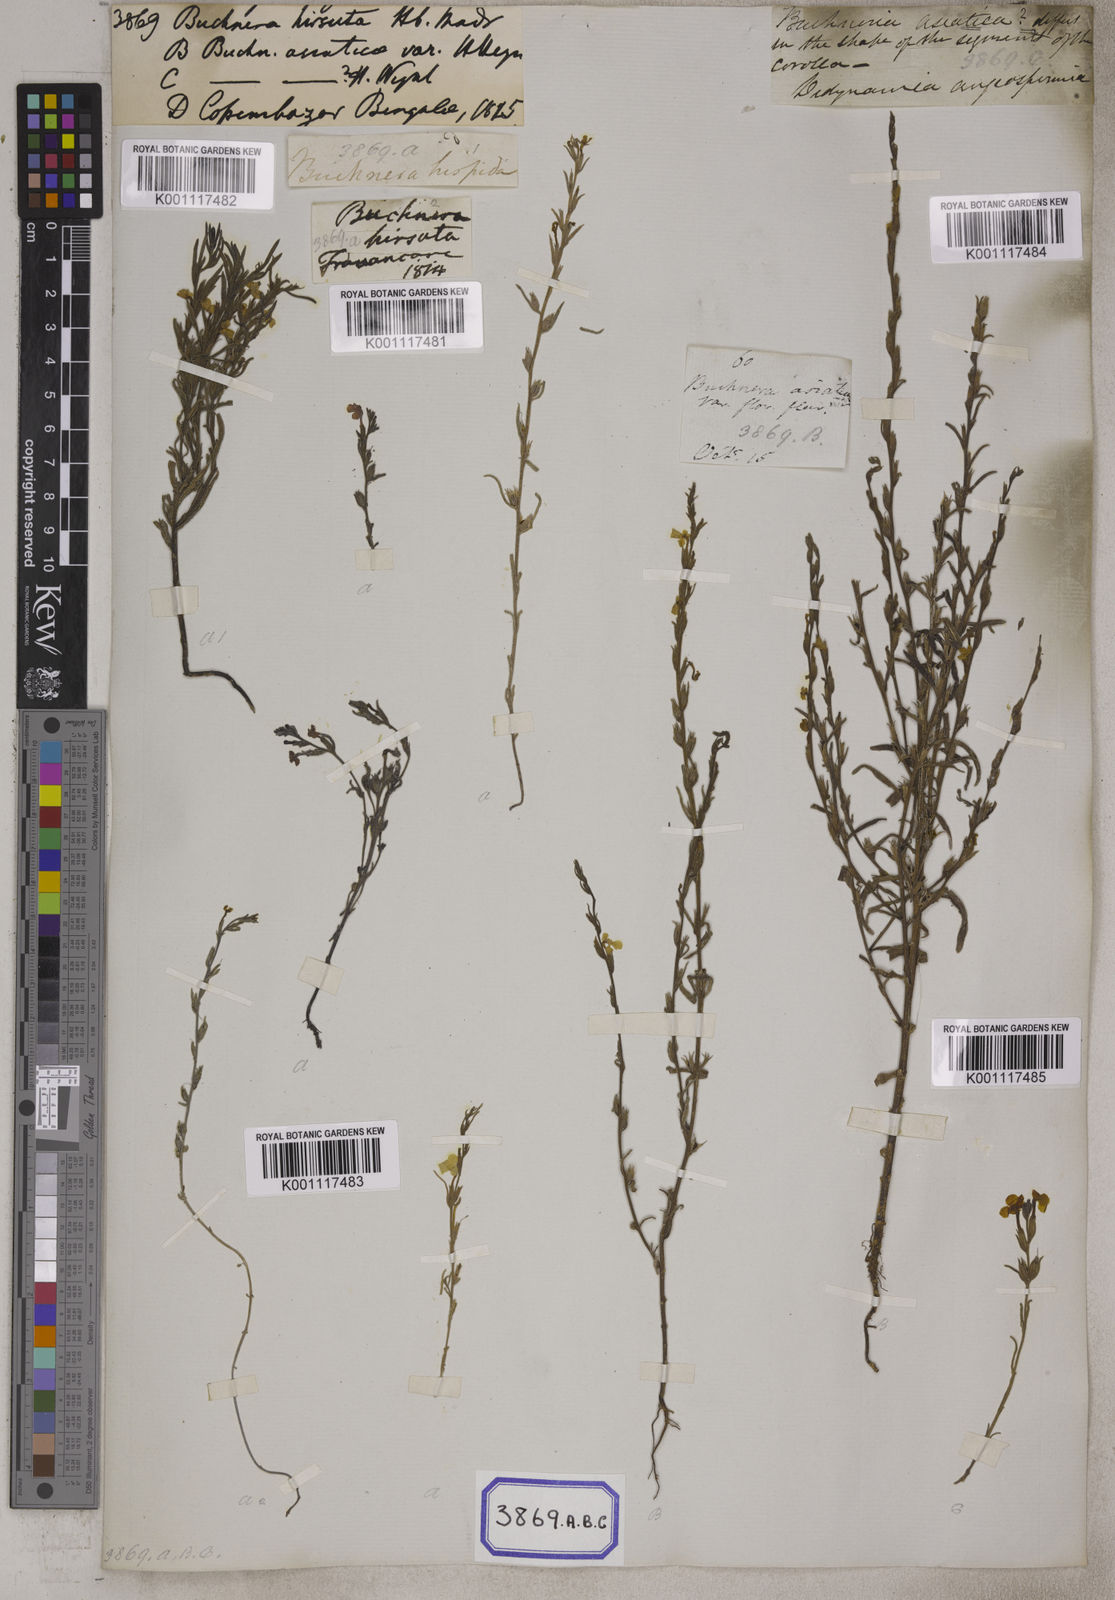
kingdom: Plantae
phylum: Tracheophyta
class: Magnoliopsida
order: Lamiales
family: Orobanchaceae
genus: Buchnera
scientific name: Buchnera
